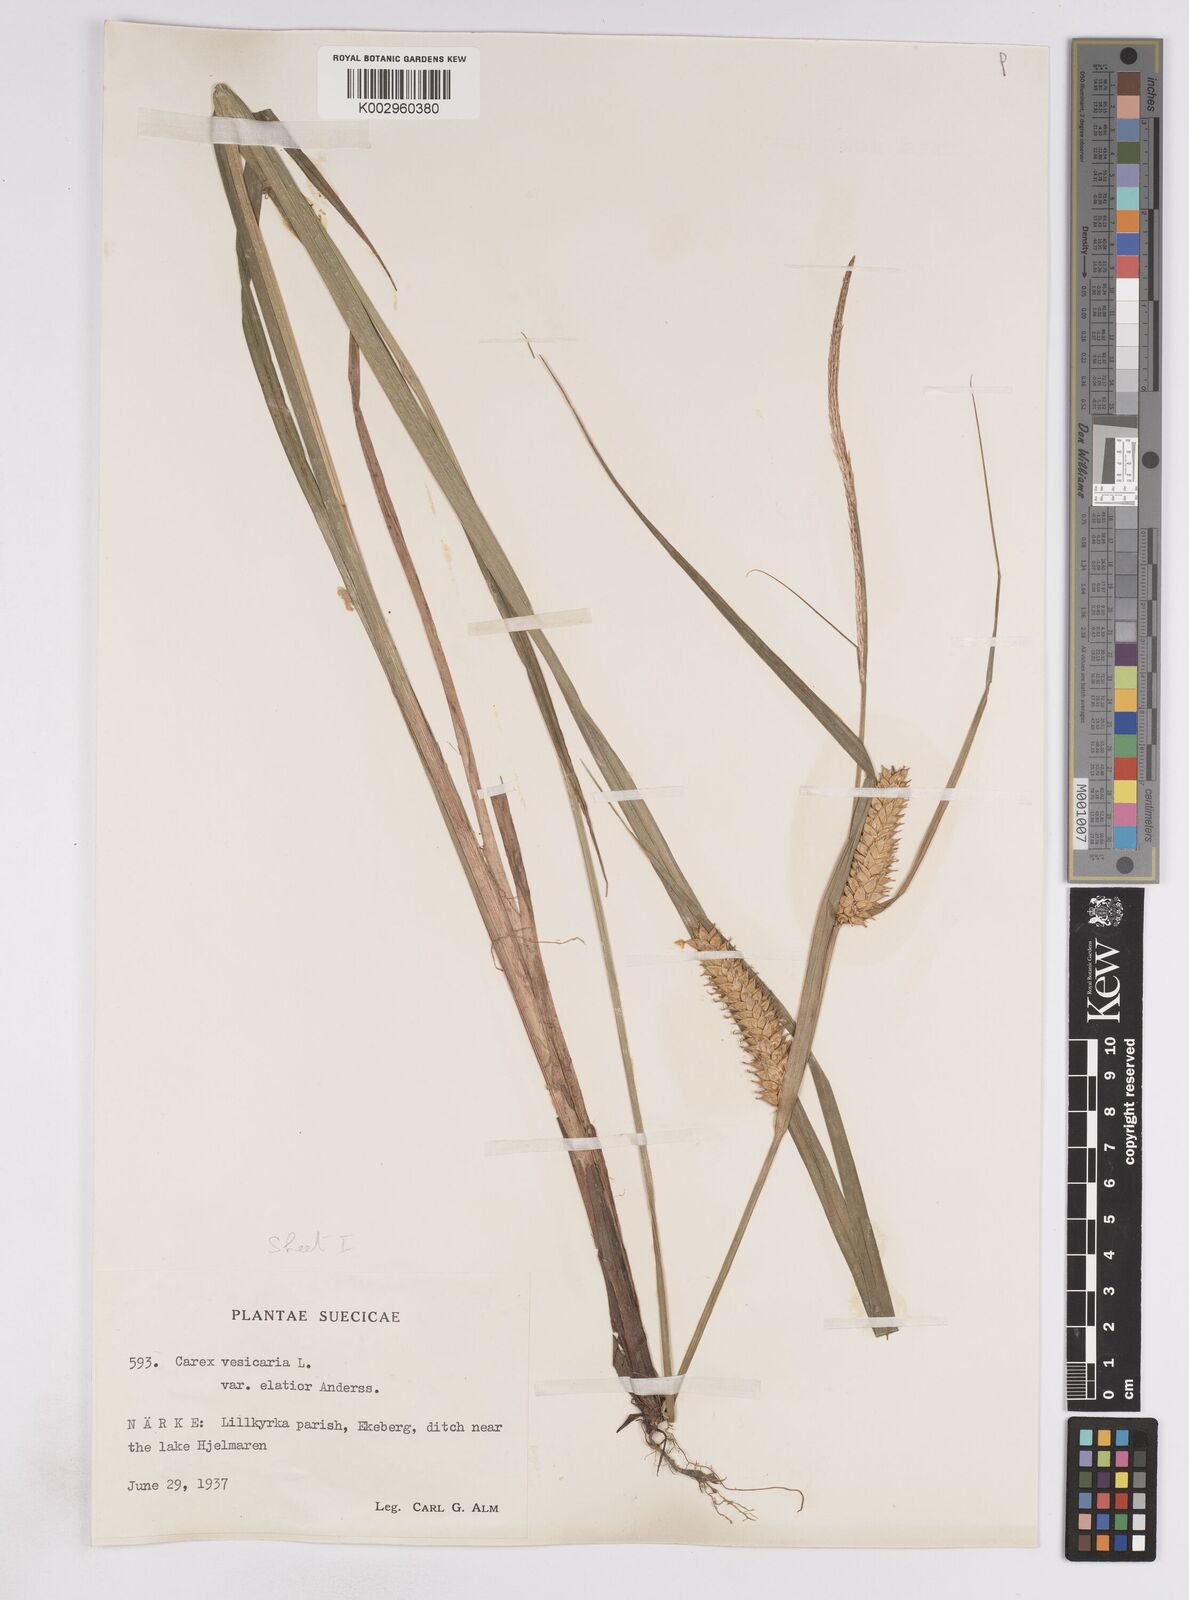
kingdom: Plantae
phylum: Tracheophyta
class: Liliopsida
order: Poales
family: Cyperaceae
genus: Carex
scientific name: Carex vesicaria
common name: Bladder-sedge
